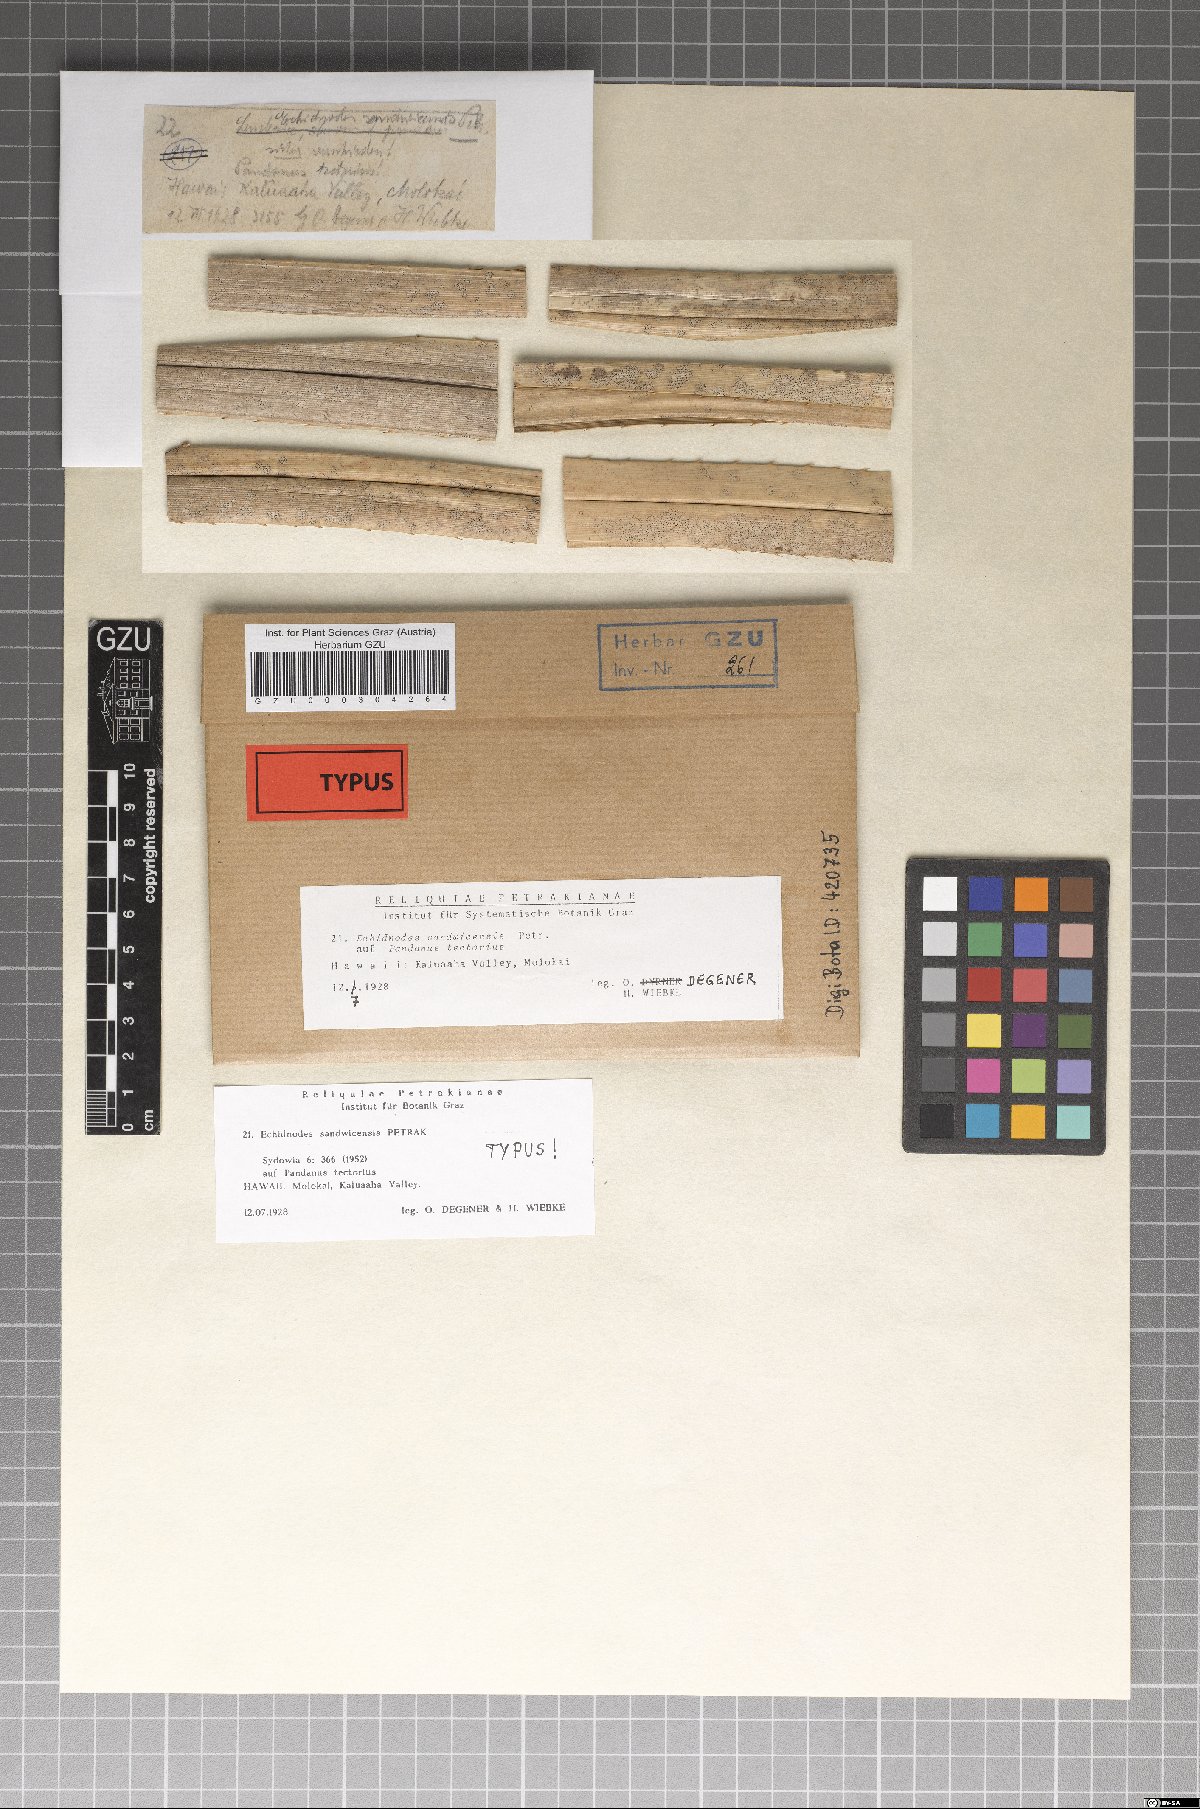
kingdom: Fungi
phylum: Ascomycota
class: Dothideomycetes
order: Asterinales
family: Asterinaceae
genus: Echidnodes
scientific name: Echidnodes sandwicensis
